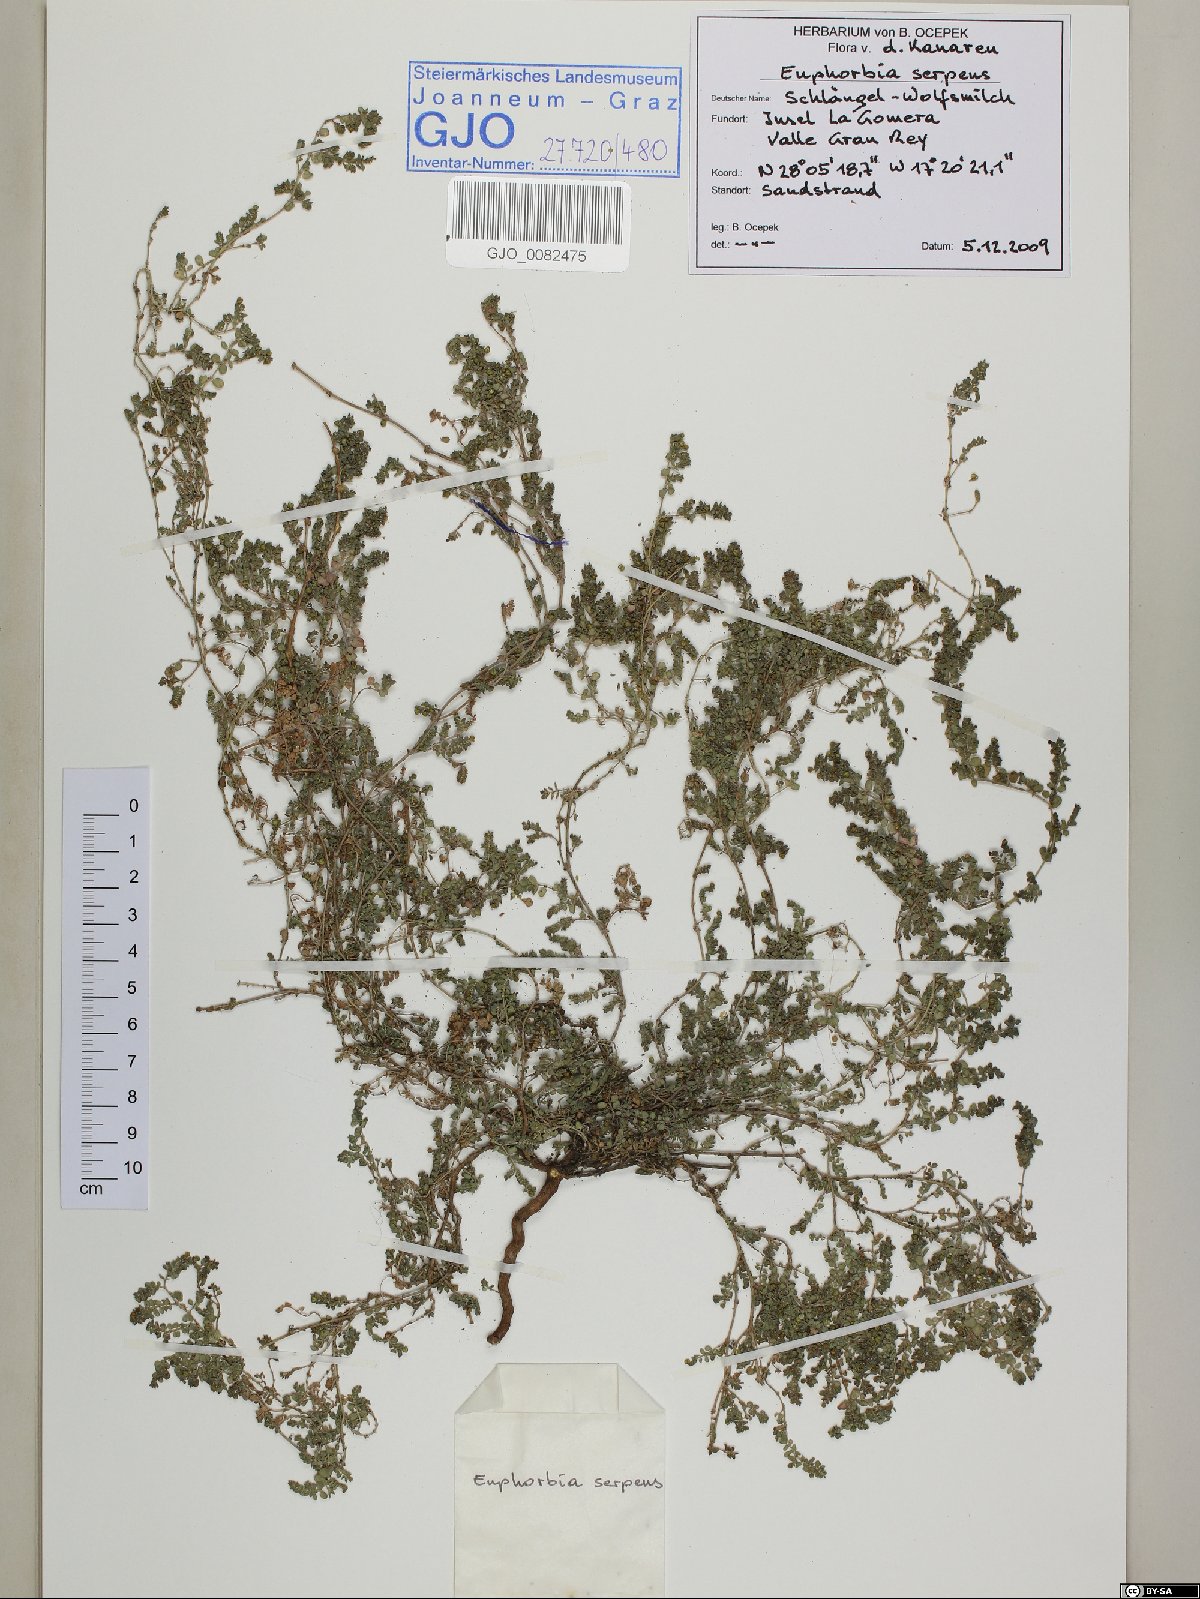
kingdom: Plantae
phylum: Tracheophyta
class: Magnoliopsida
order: Malpighiales
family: Euphorbiaceae
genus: Euphorbia
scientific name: Euphorbia serpens
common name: Matted sandmat
